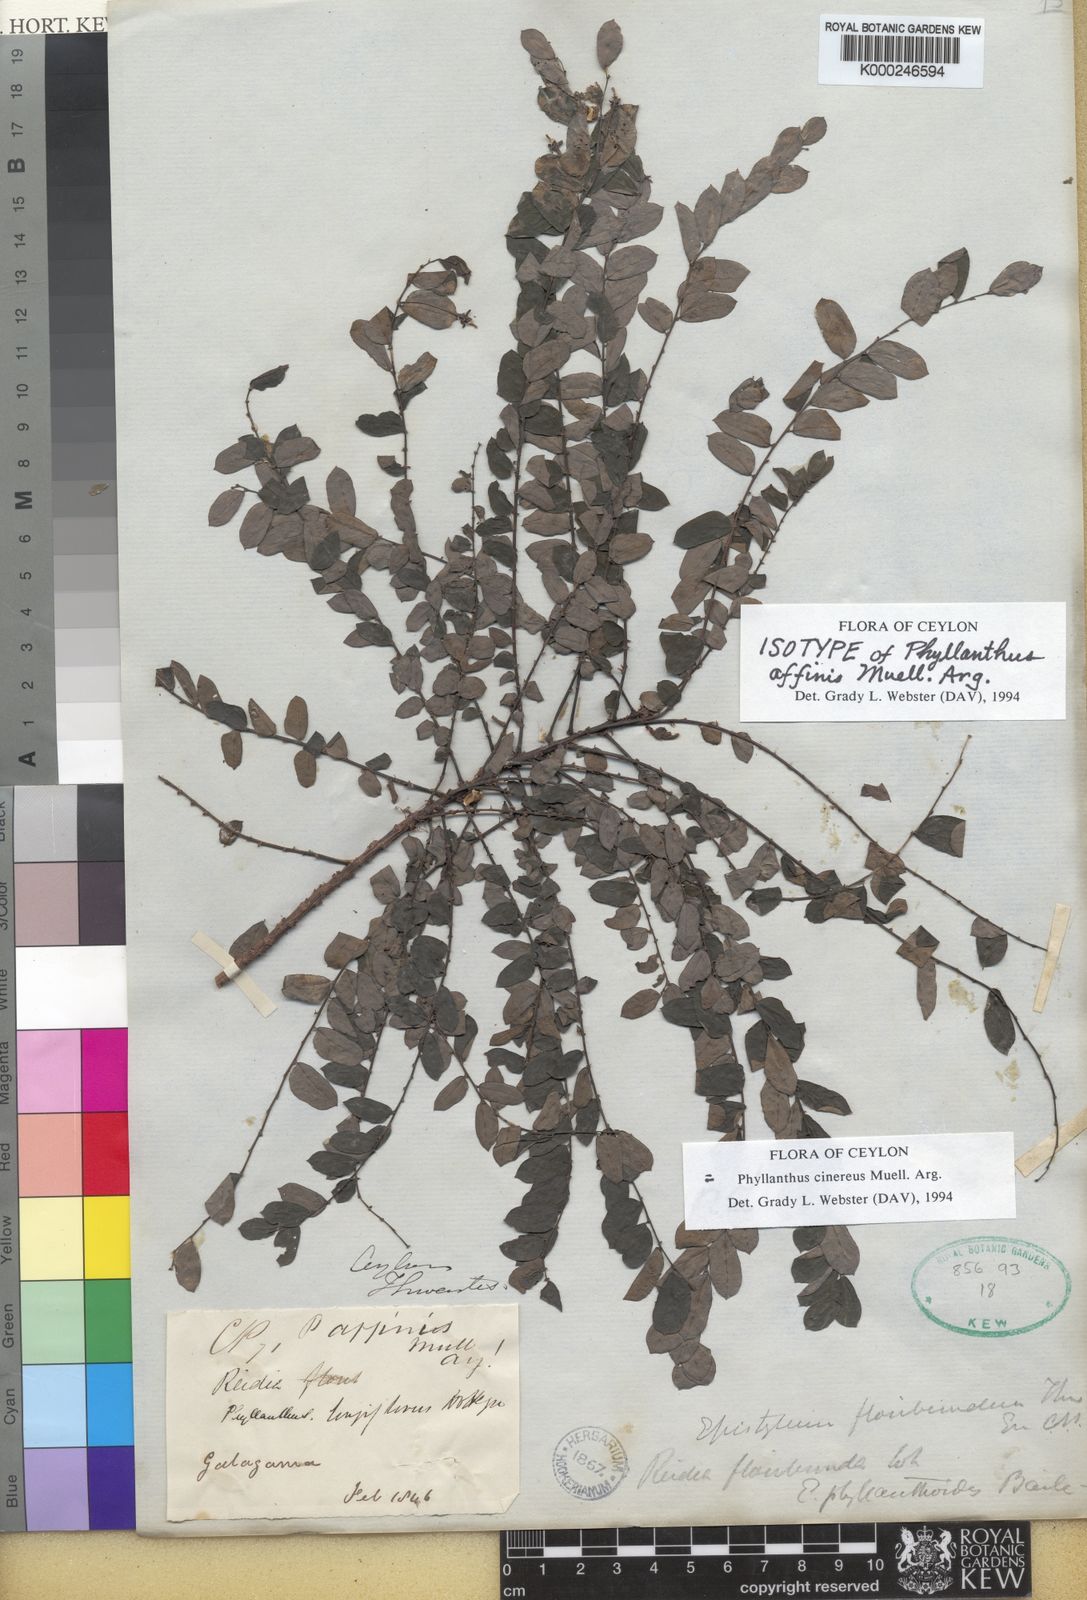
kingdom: Plantae
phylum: Tracheophyta
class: Magnoliopsida
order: Malpighiales
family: Phyllanthaceae
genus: Phyllanthus
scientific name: Phyllanthus
